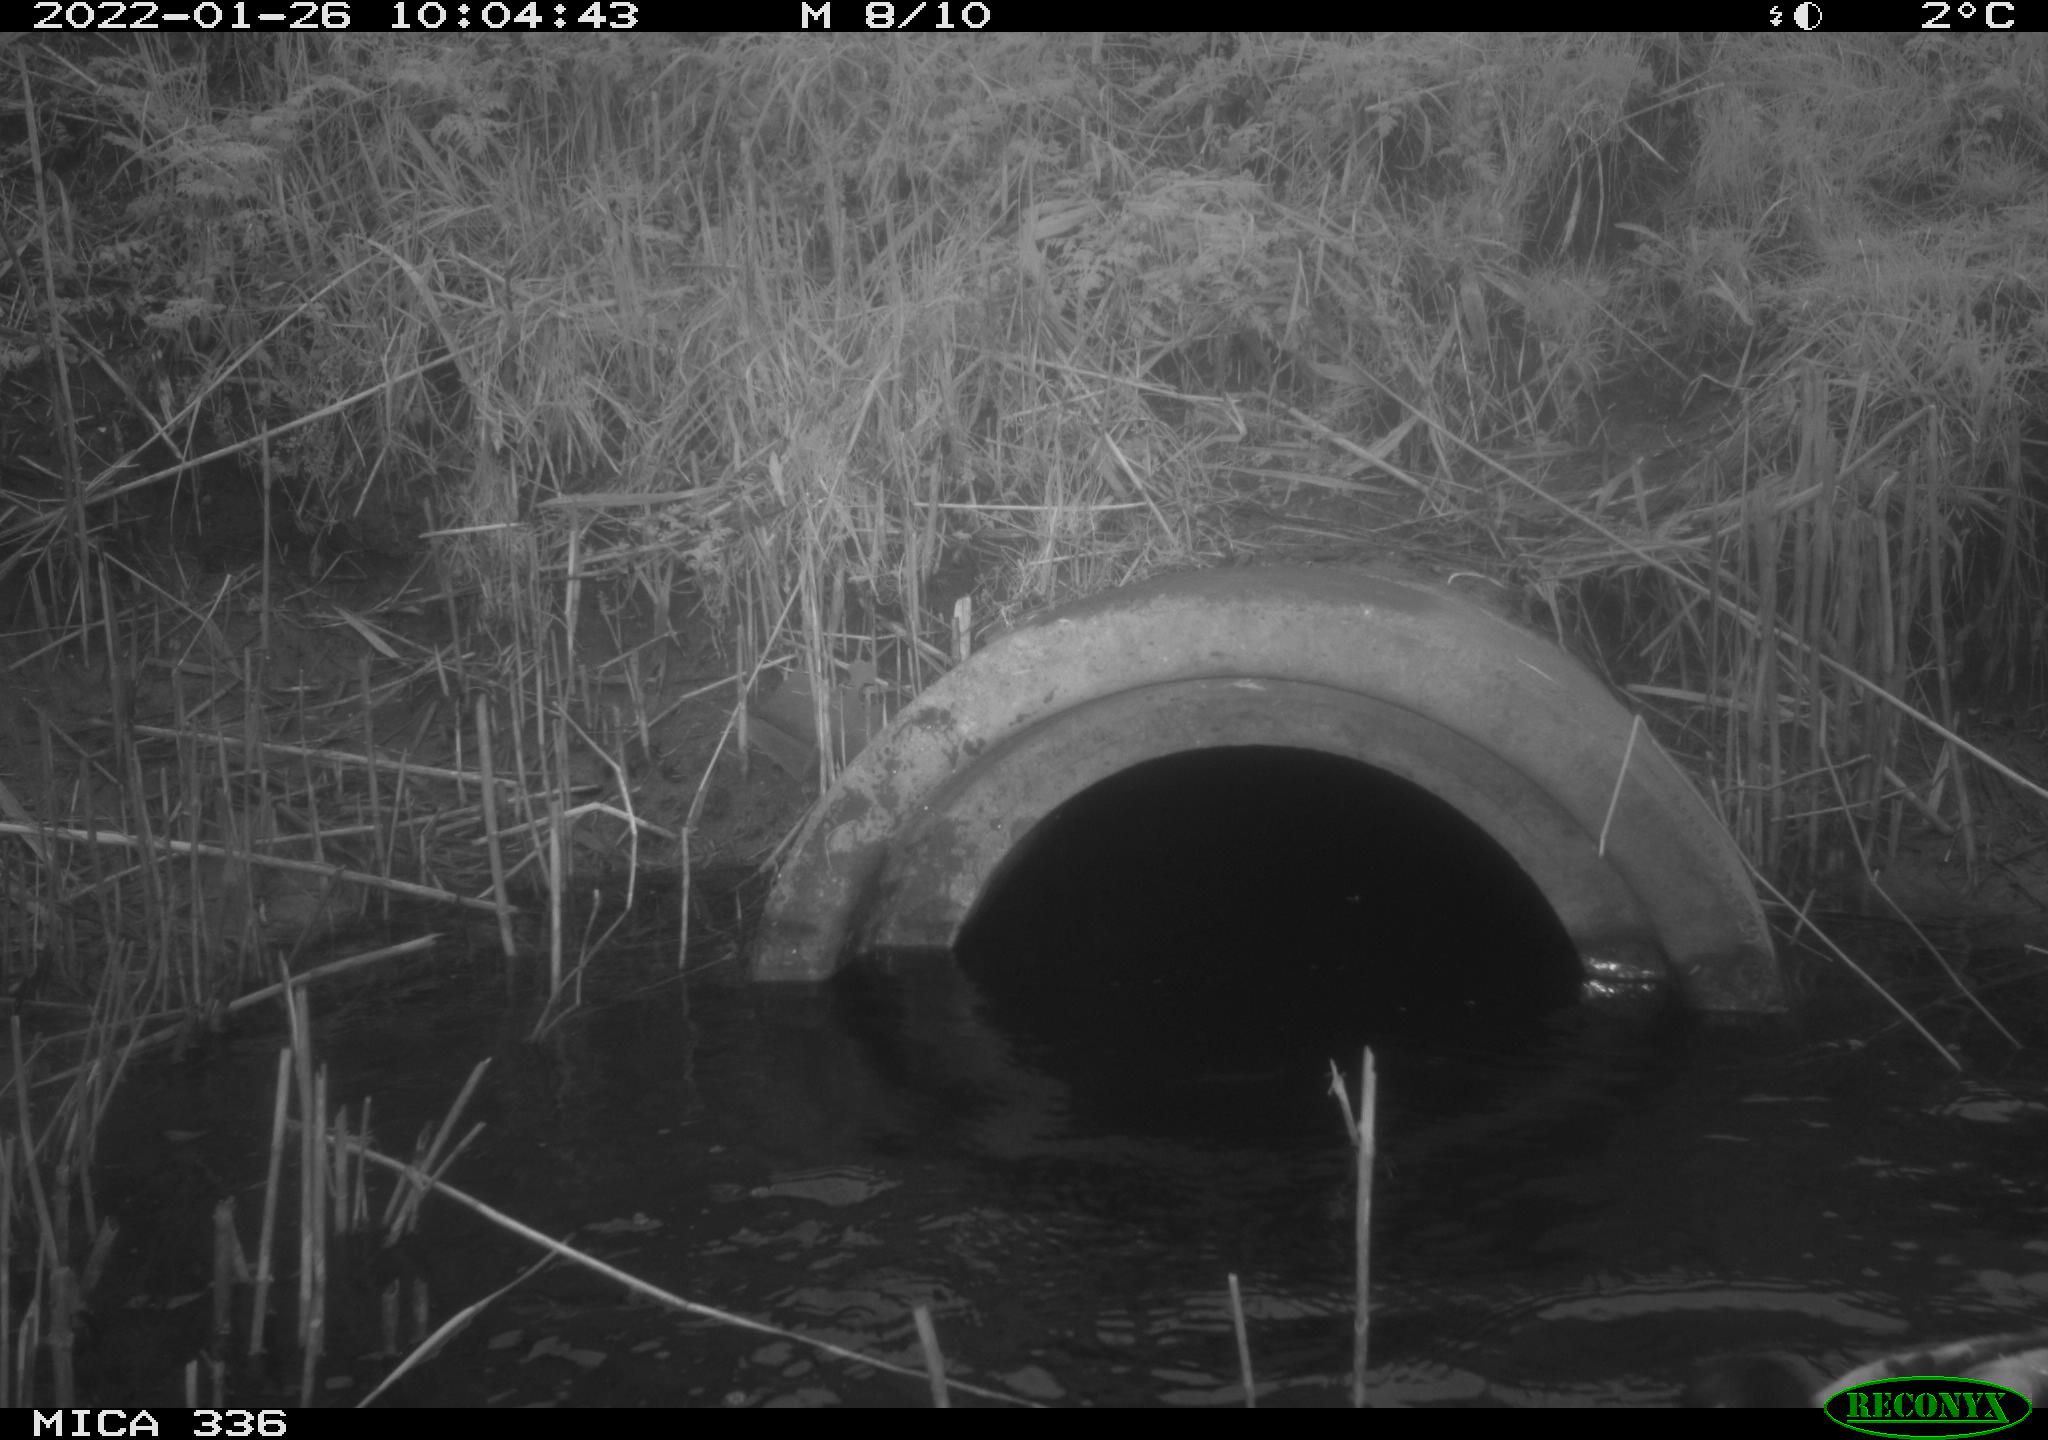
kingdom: Animalia
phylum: Chordata
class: Aves
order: Anseriformes
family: Anatidae
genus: Anas
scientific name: Anas platyrhynchos
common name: Mallard
